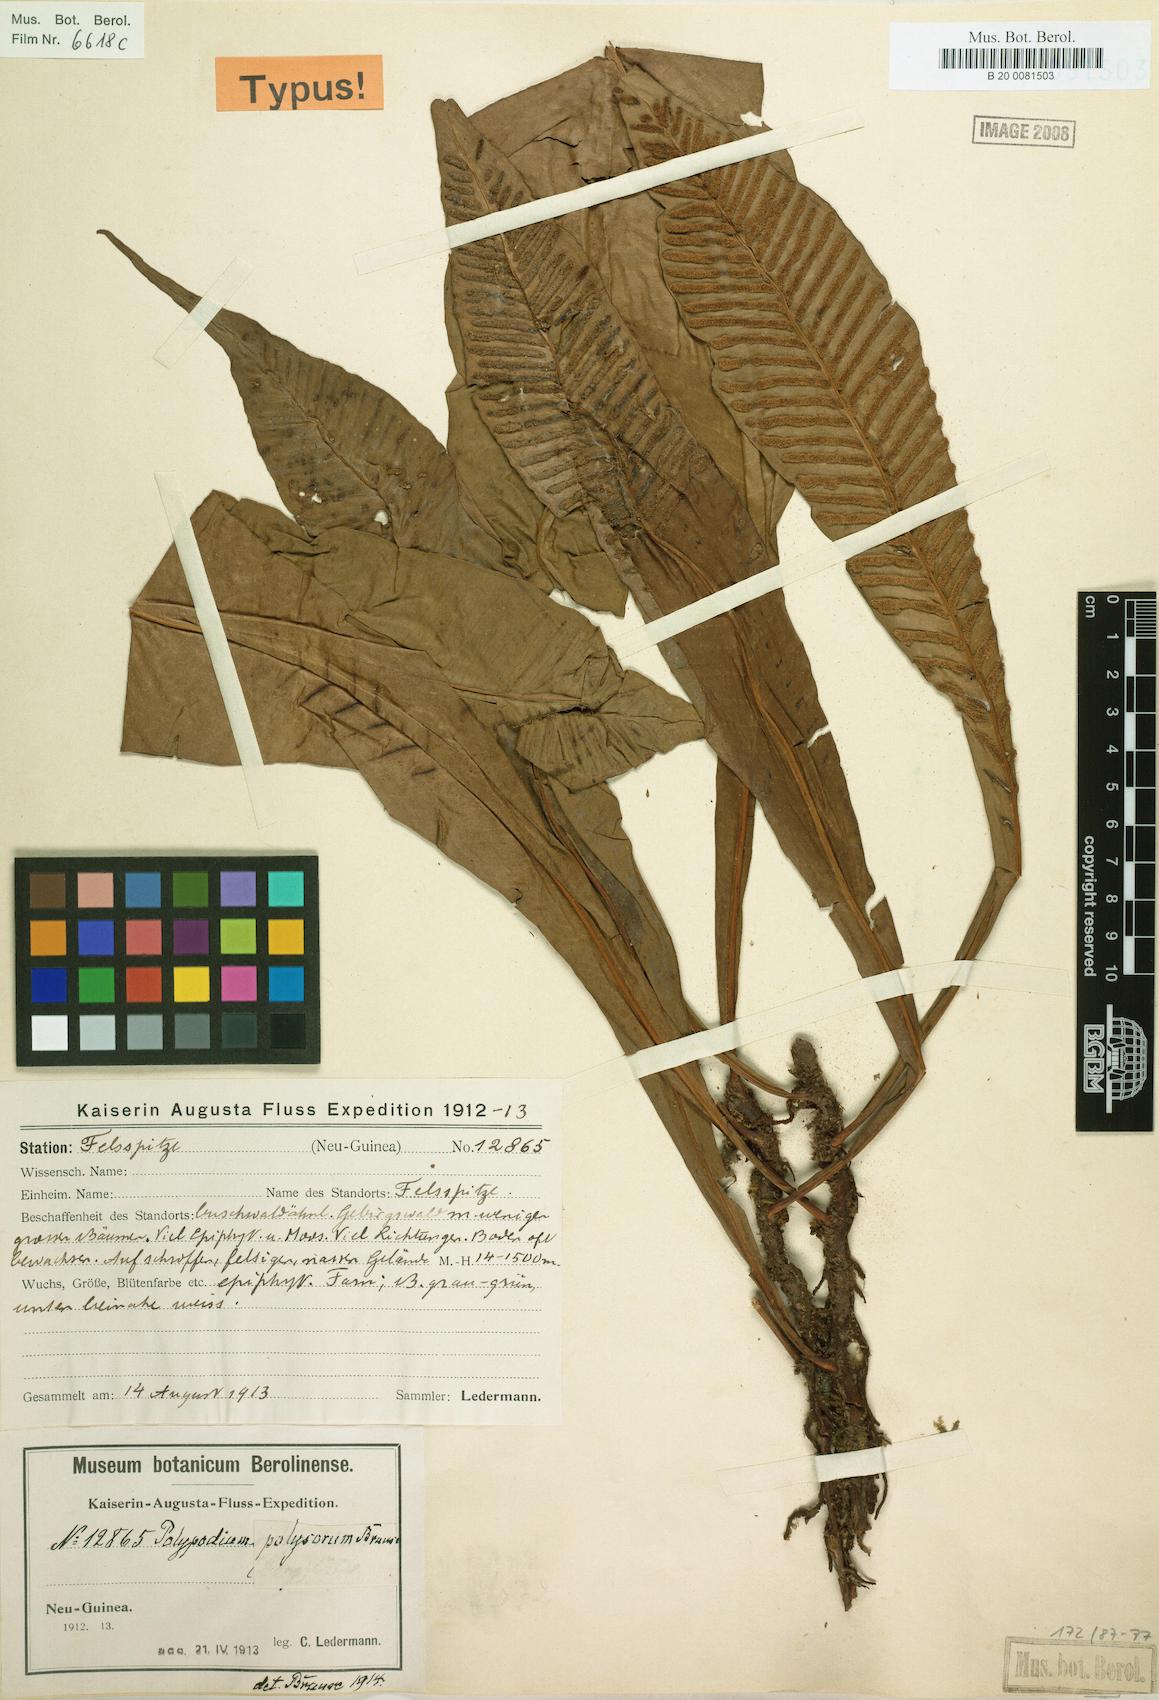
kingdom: Plantae
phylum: Tracheophyta
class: Polypodiopsida
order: Polypodiales
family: Polypodiaceae
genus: Leptochilus
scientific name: Leptochilus macrophyllus
